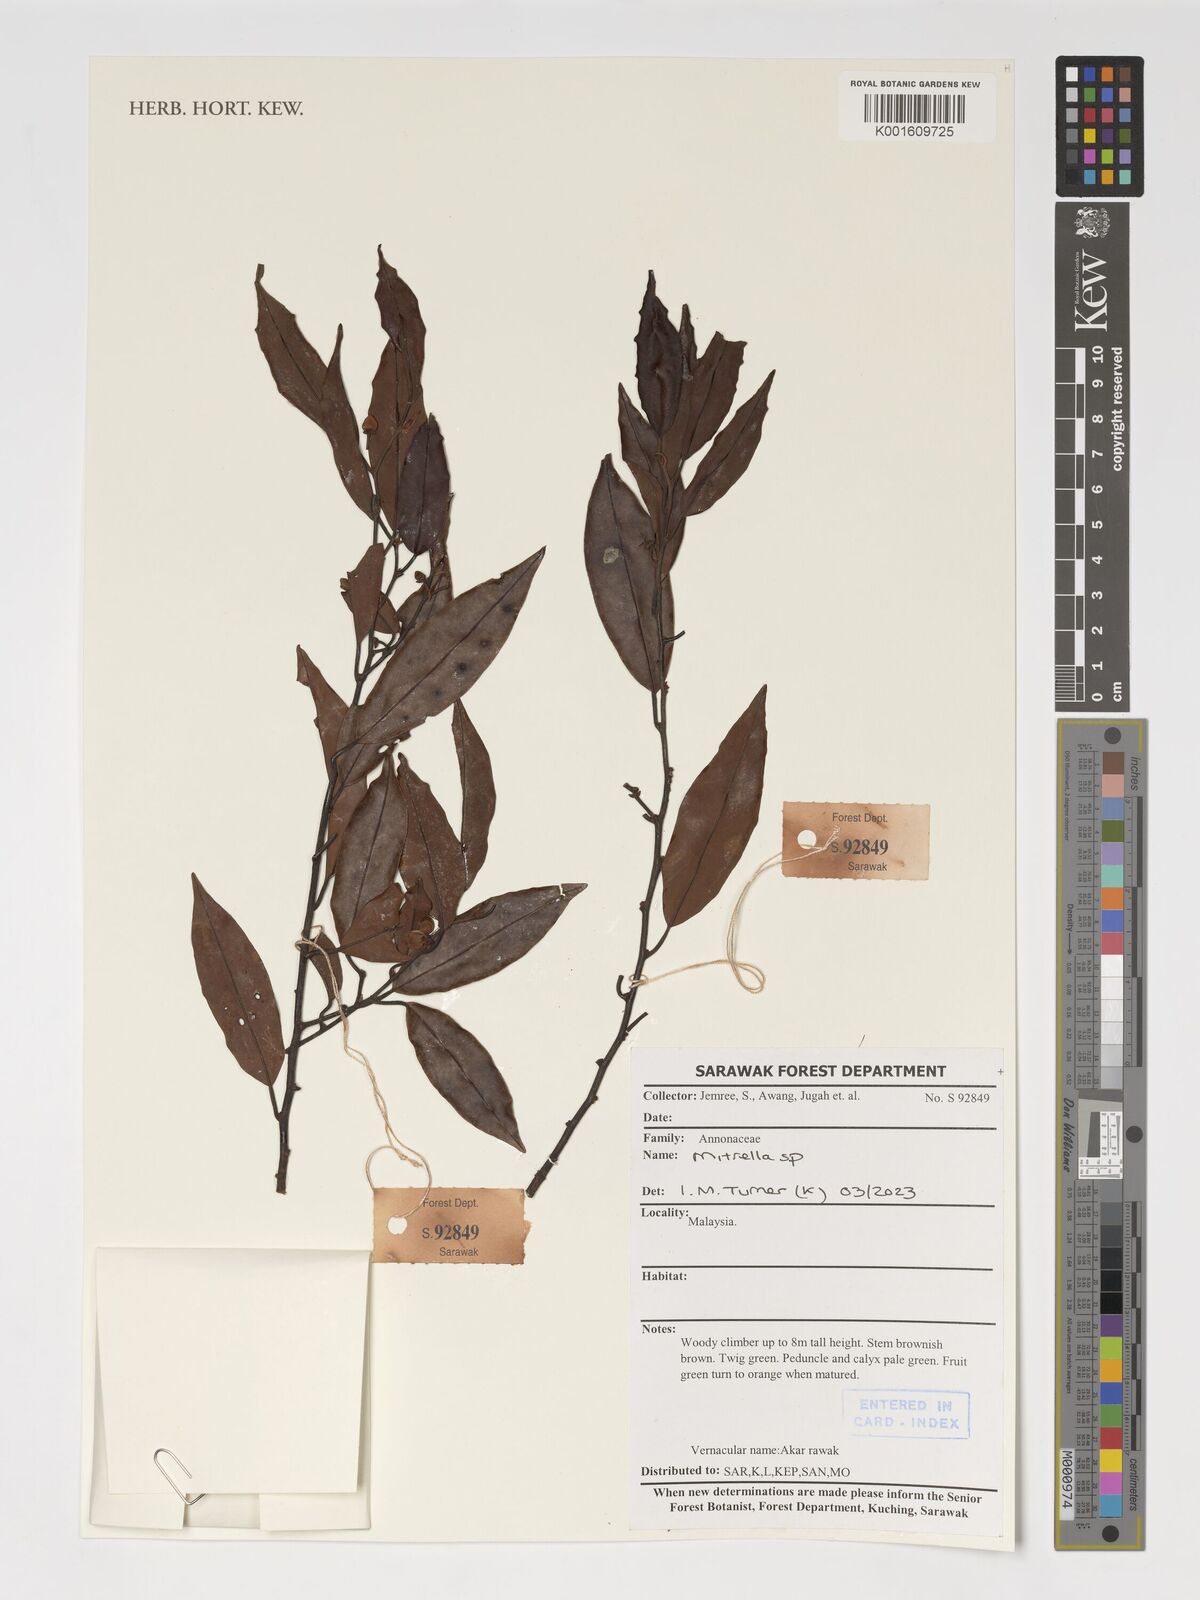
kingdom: Plantae
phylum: Tracheophyta
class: Magnoliopsida
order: Magnoliales
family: Annonaceae
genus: Mitrella
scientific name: Mitrella
